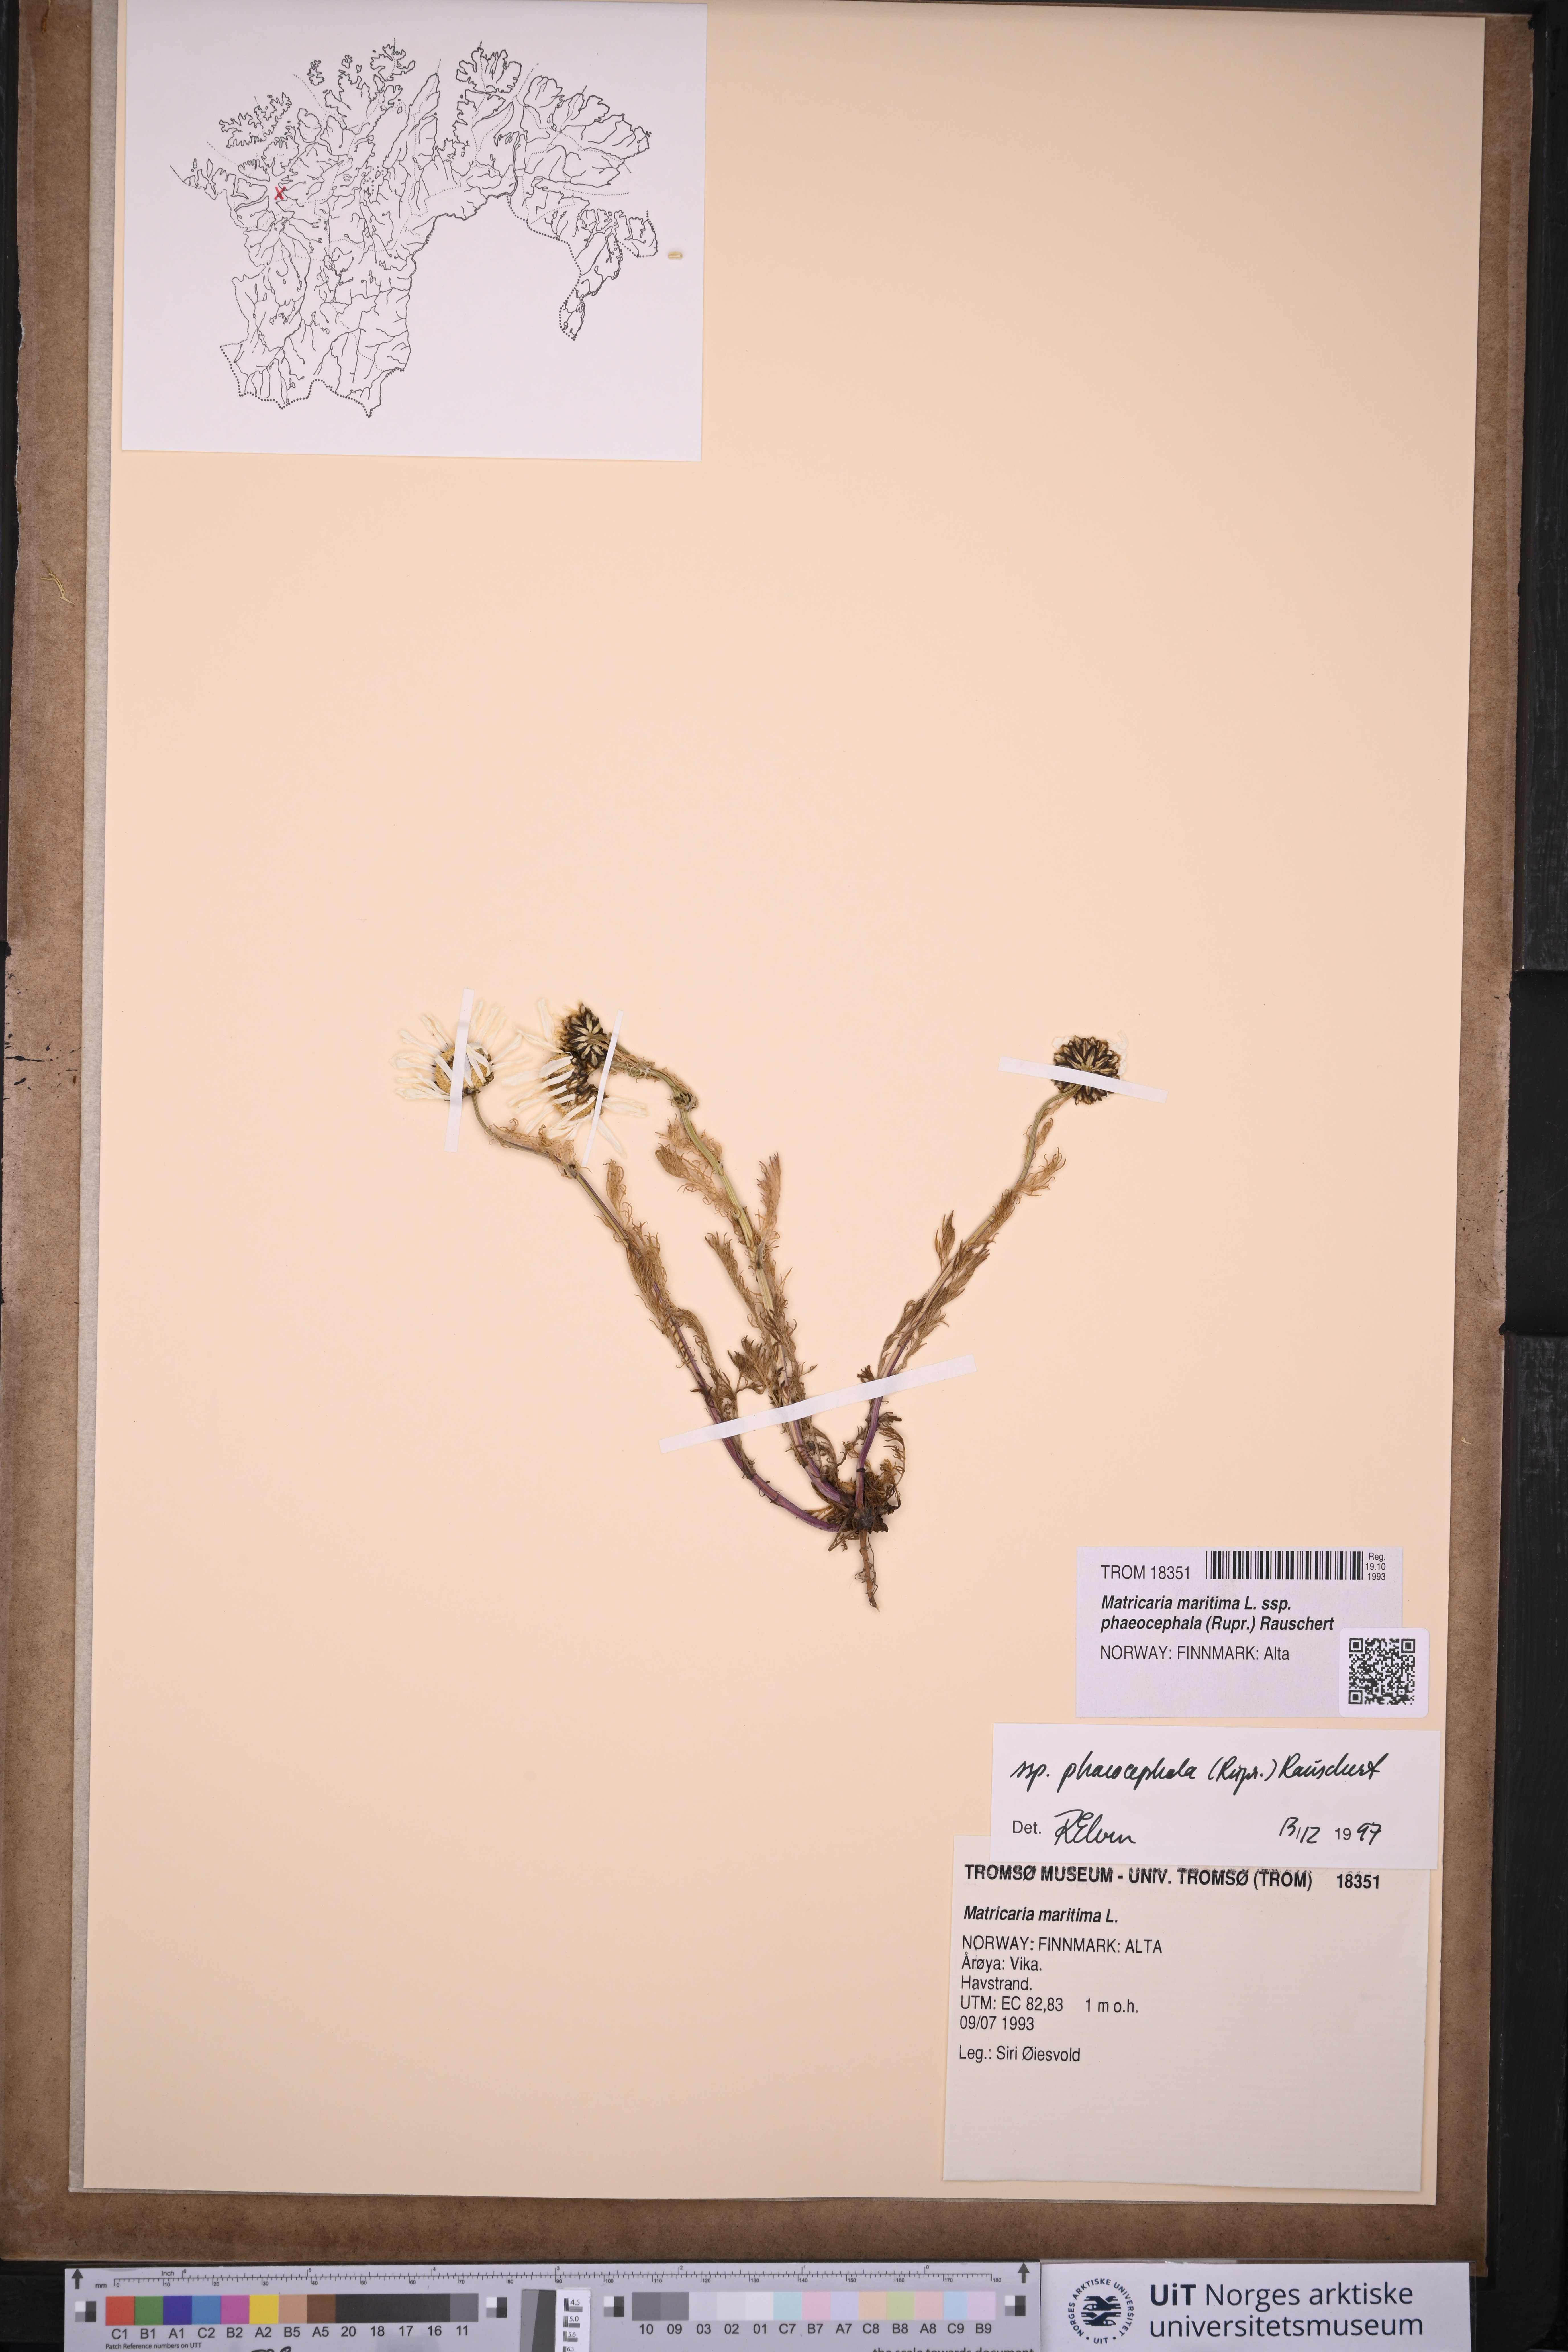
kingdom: Plantae
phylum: Tracheophyta
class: Magnoliopsida
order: Asterales
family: Asteraceae
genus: Tripleurospermum
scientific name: Tripleurospermum hookeri
